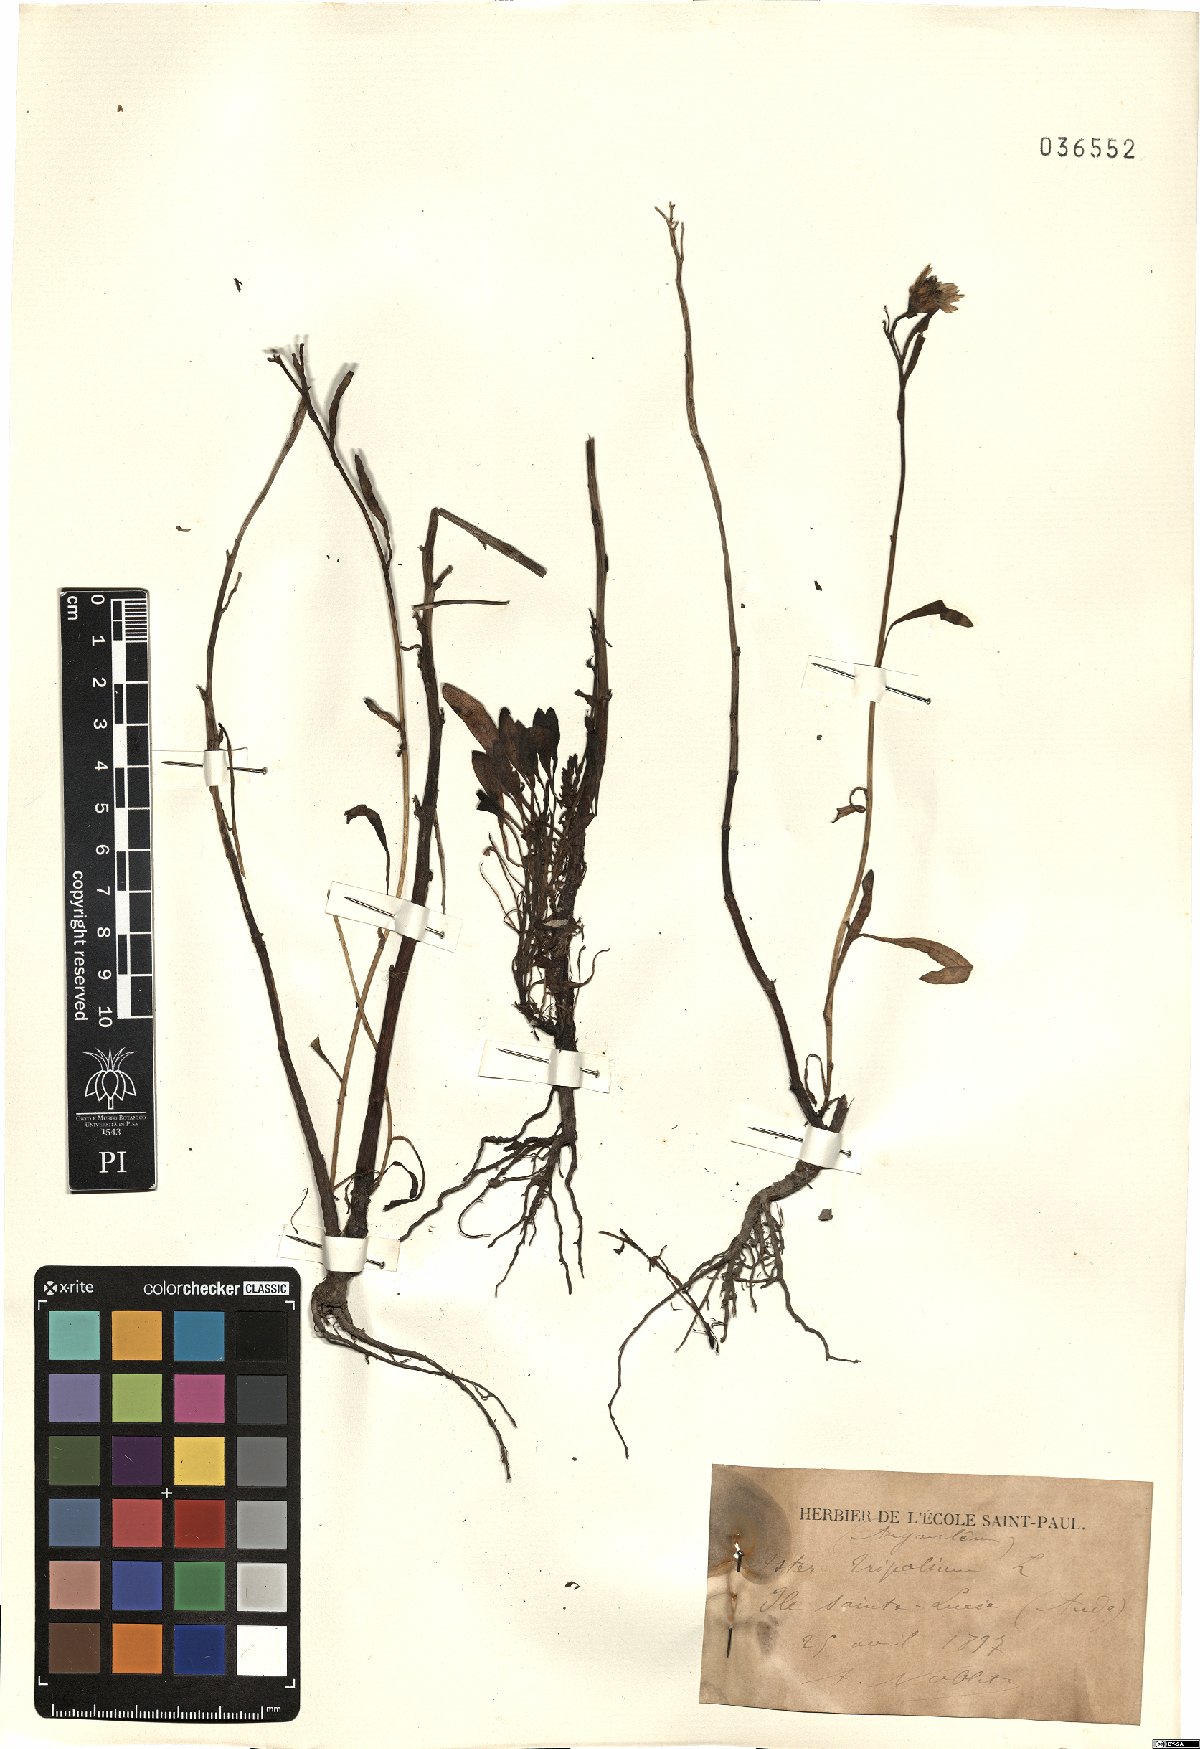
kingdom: Plantae
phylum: Tracheophyta
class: Magnoliopsida
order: Asterales
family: Asteraceae
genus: Tripolium
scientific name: Tripolium pannonicum
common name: Sea aster
